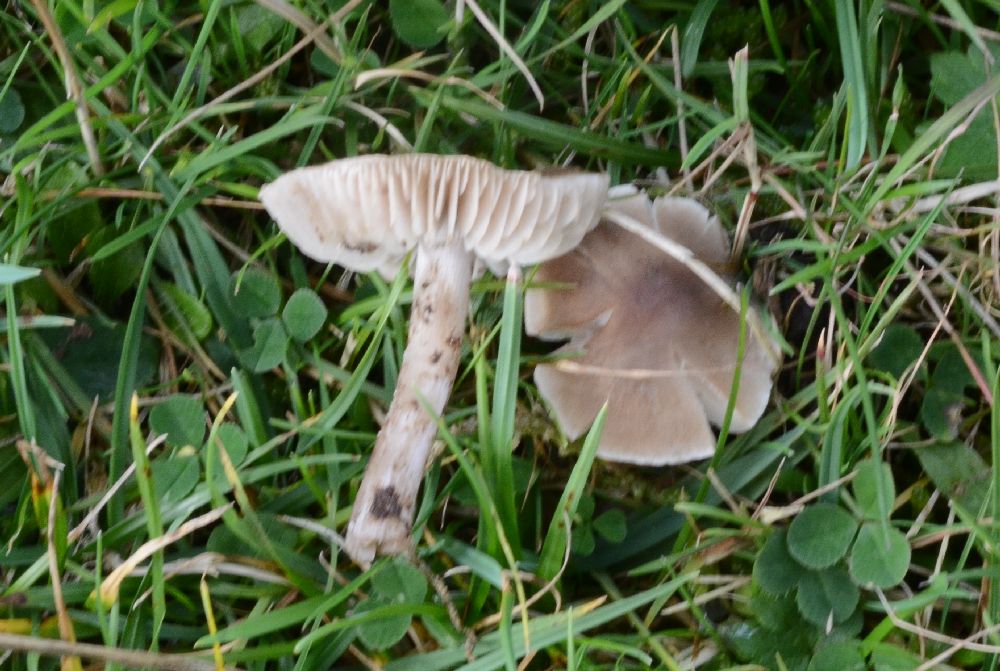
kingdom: Fungi
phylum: Basidiomycota
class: Agaricomycetes
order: Agaricales
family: Tricholomataceae
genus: Dermoloma
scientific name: Dermoloma cuneifolium
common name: eng-nonnehat
